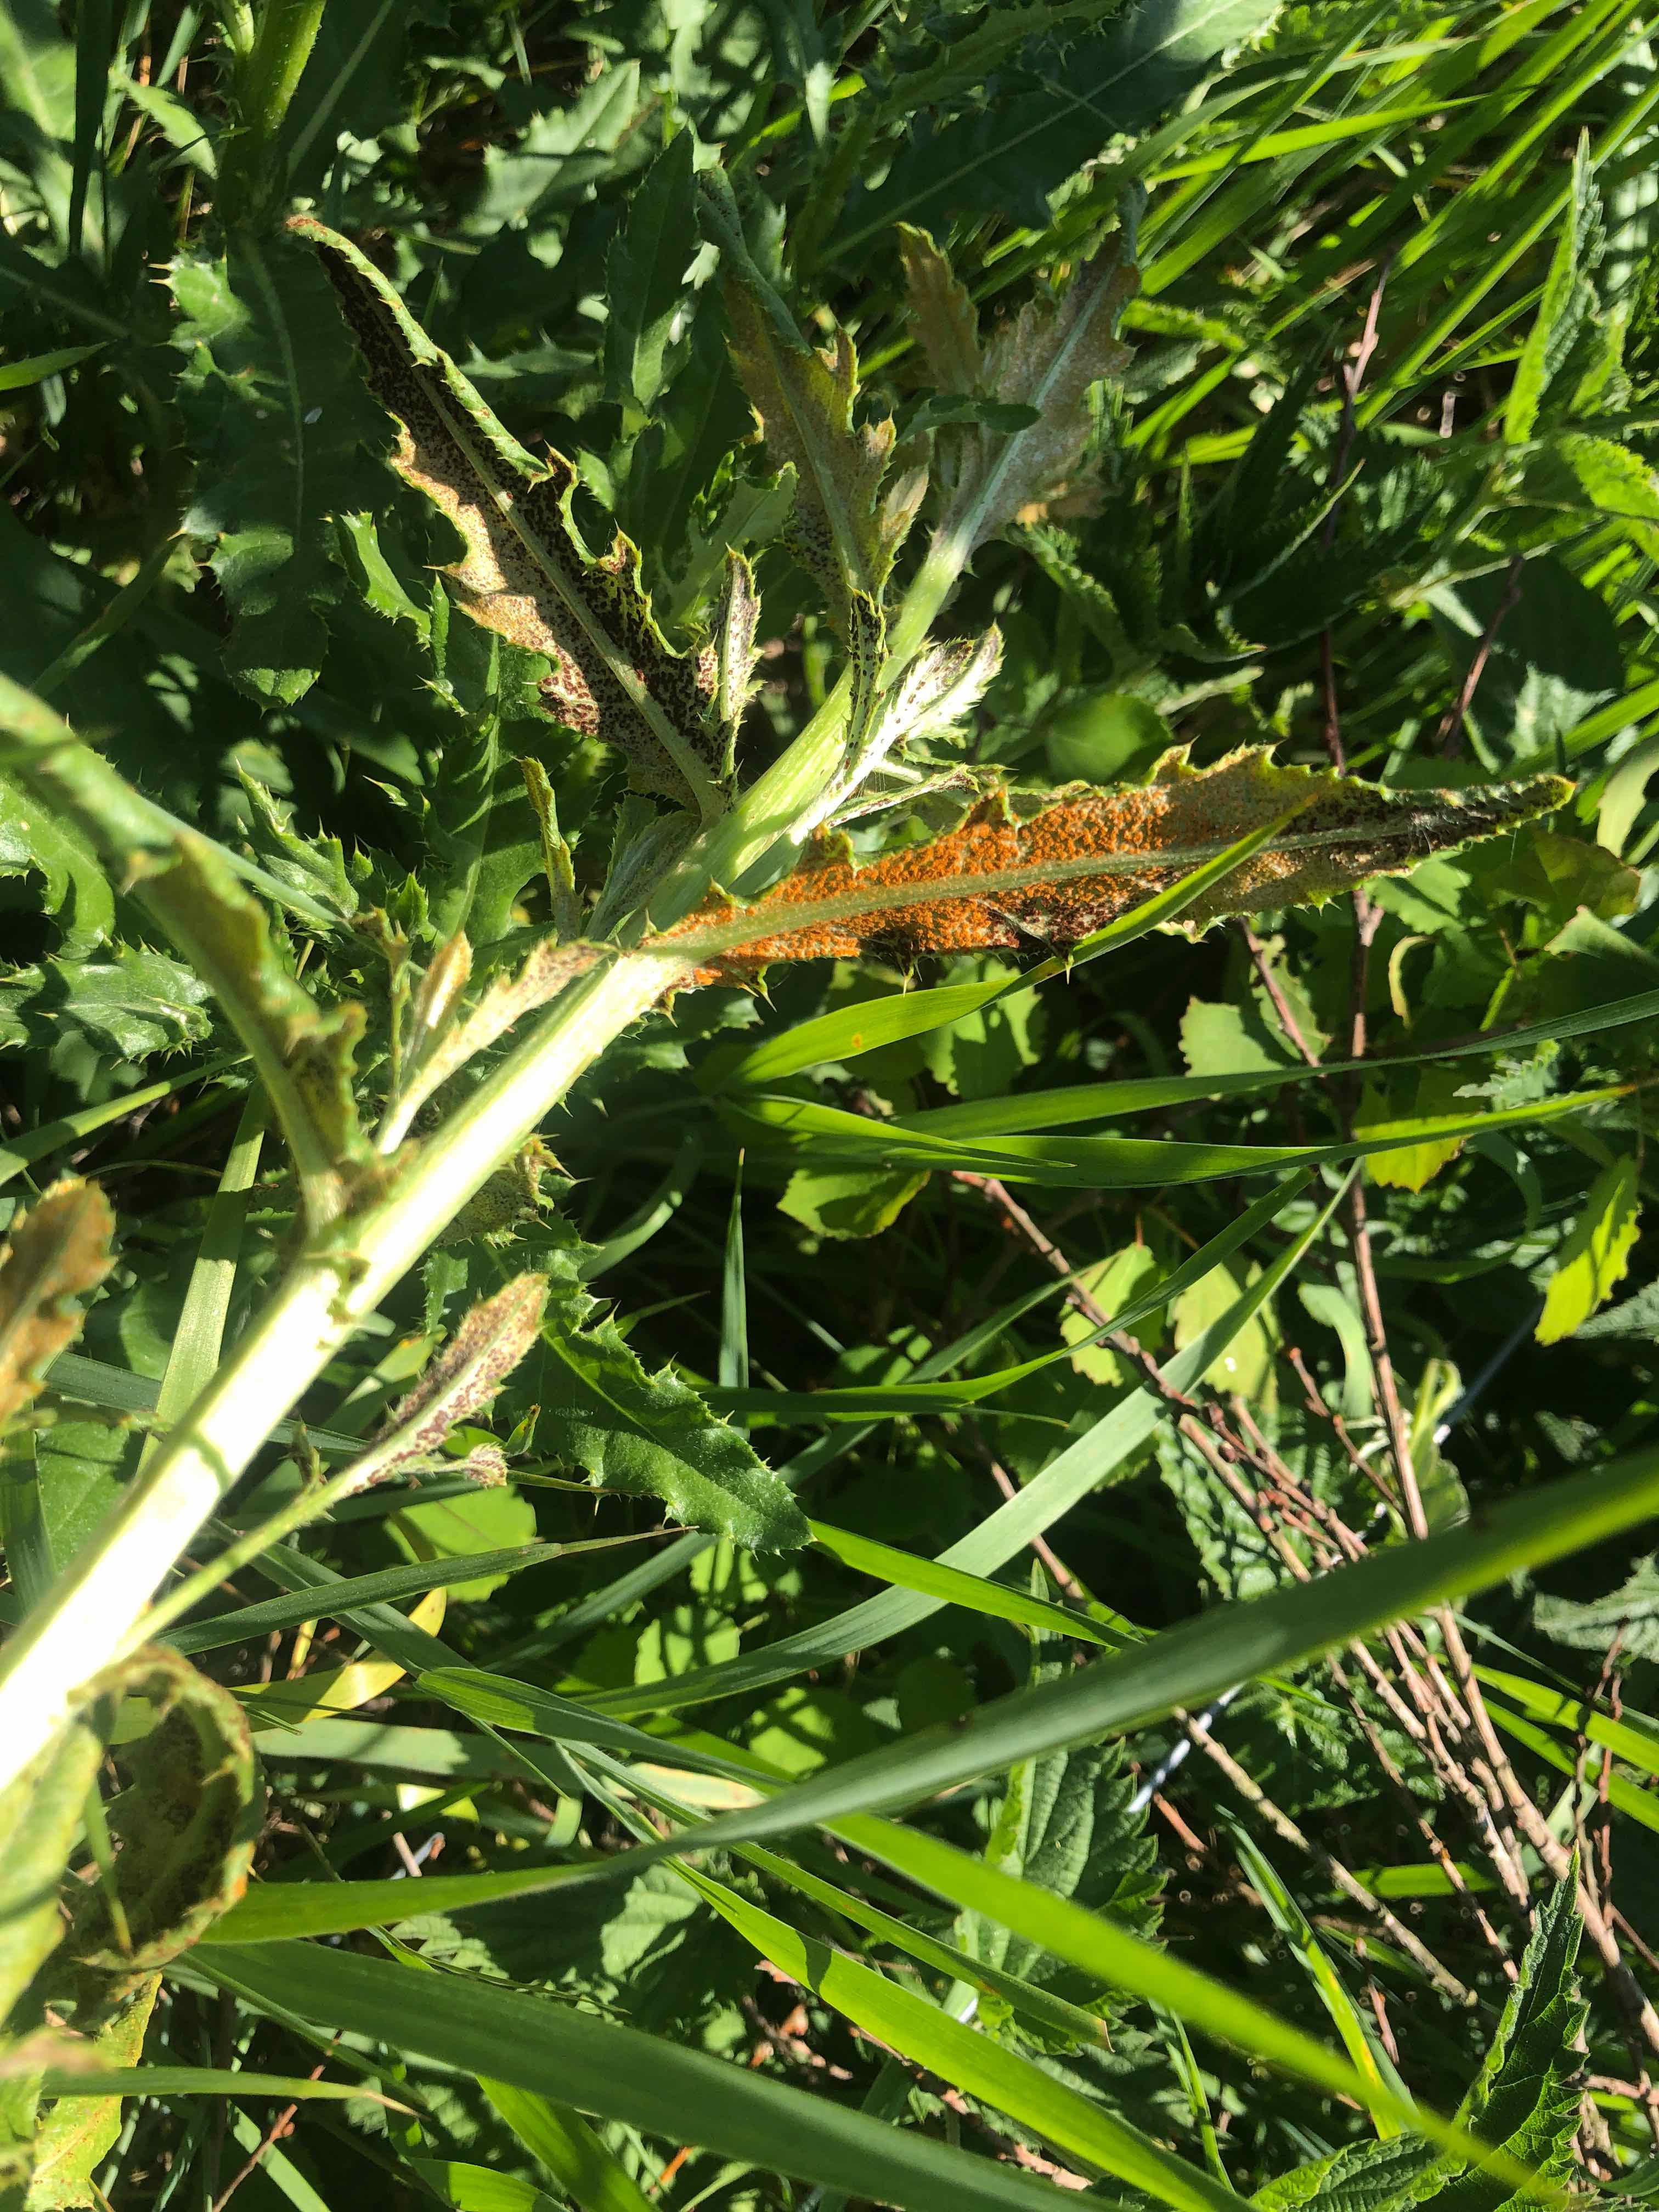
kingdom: Fungi
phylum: Basidiomycota
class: Pucciniomycetes
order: Pucciniales
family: Pucciniaceae
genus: Puccinia
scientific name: Puccinia suaveolens
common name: tidsel-tvecellerust
